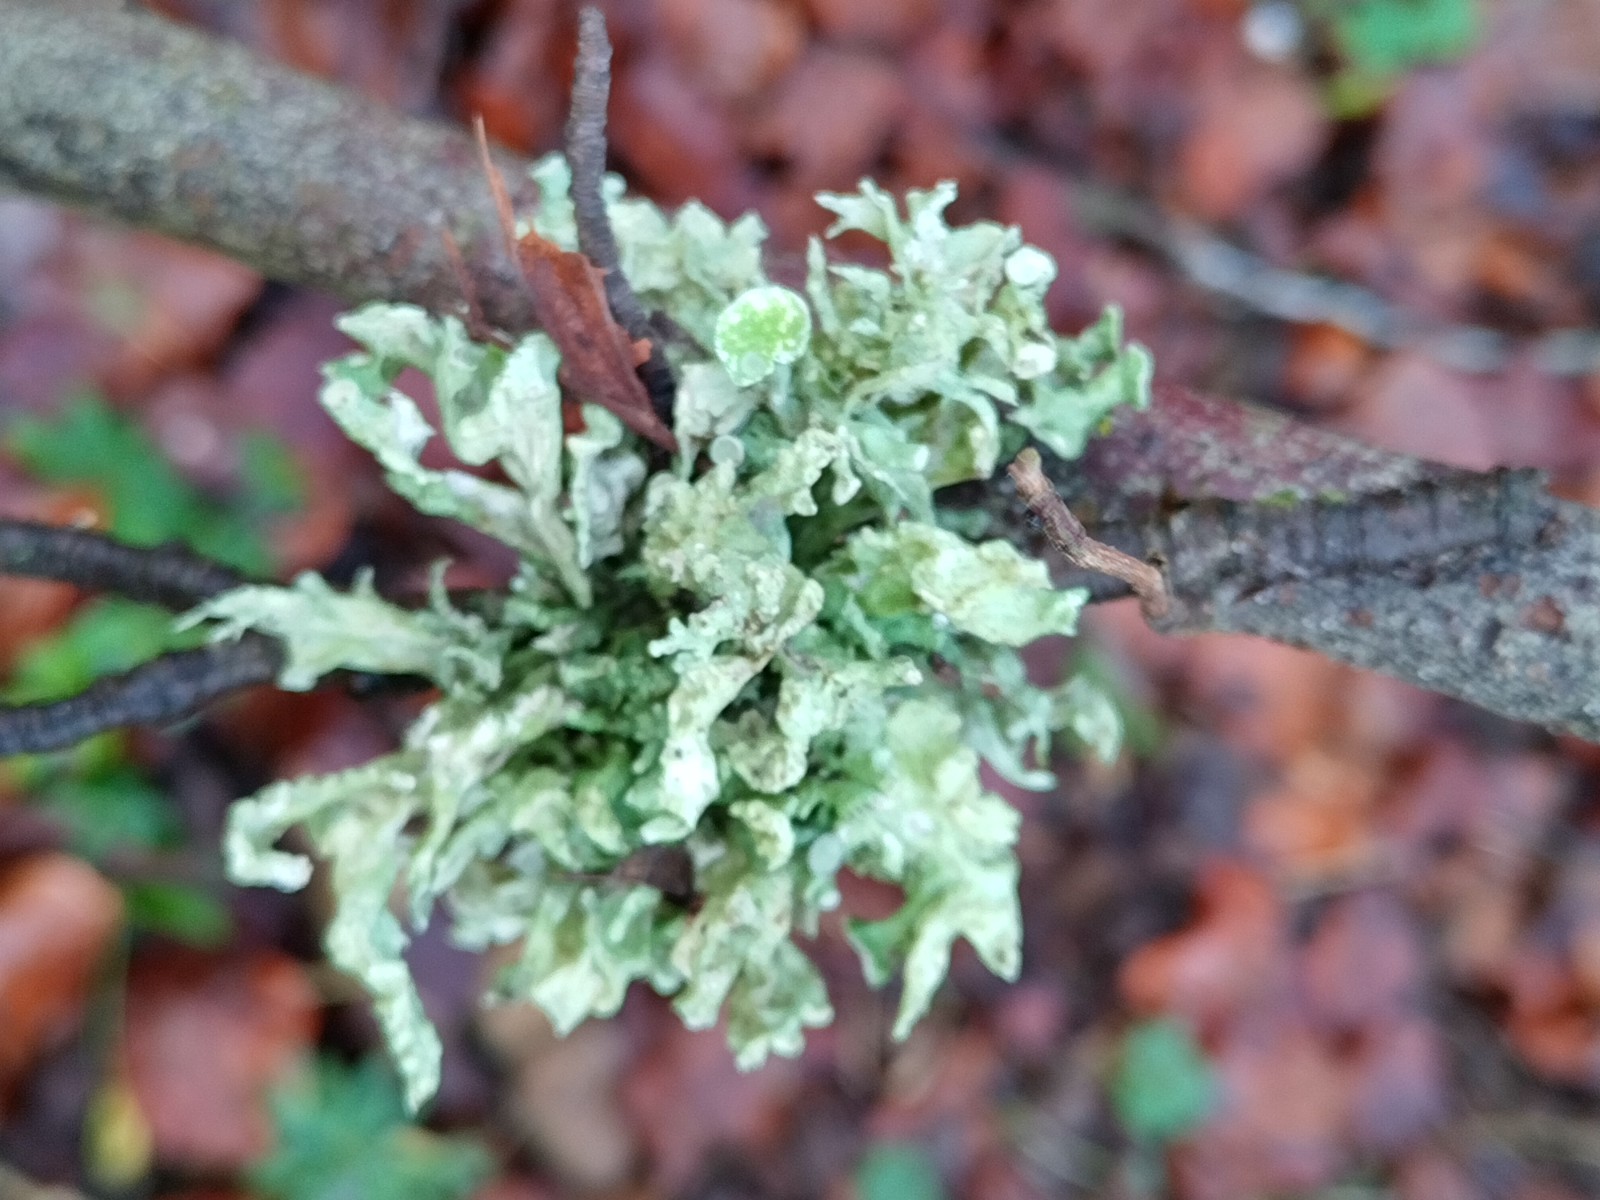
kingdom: Fungi
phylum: Ascomycota
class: Lecanoromycetes
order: Lecanorales
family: Ramalinaceae
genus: Ramalina
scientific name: Ramalina fastigiata
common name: tue-grenlav
